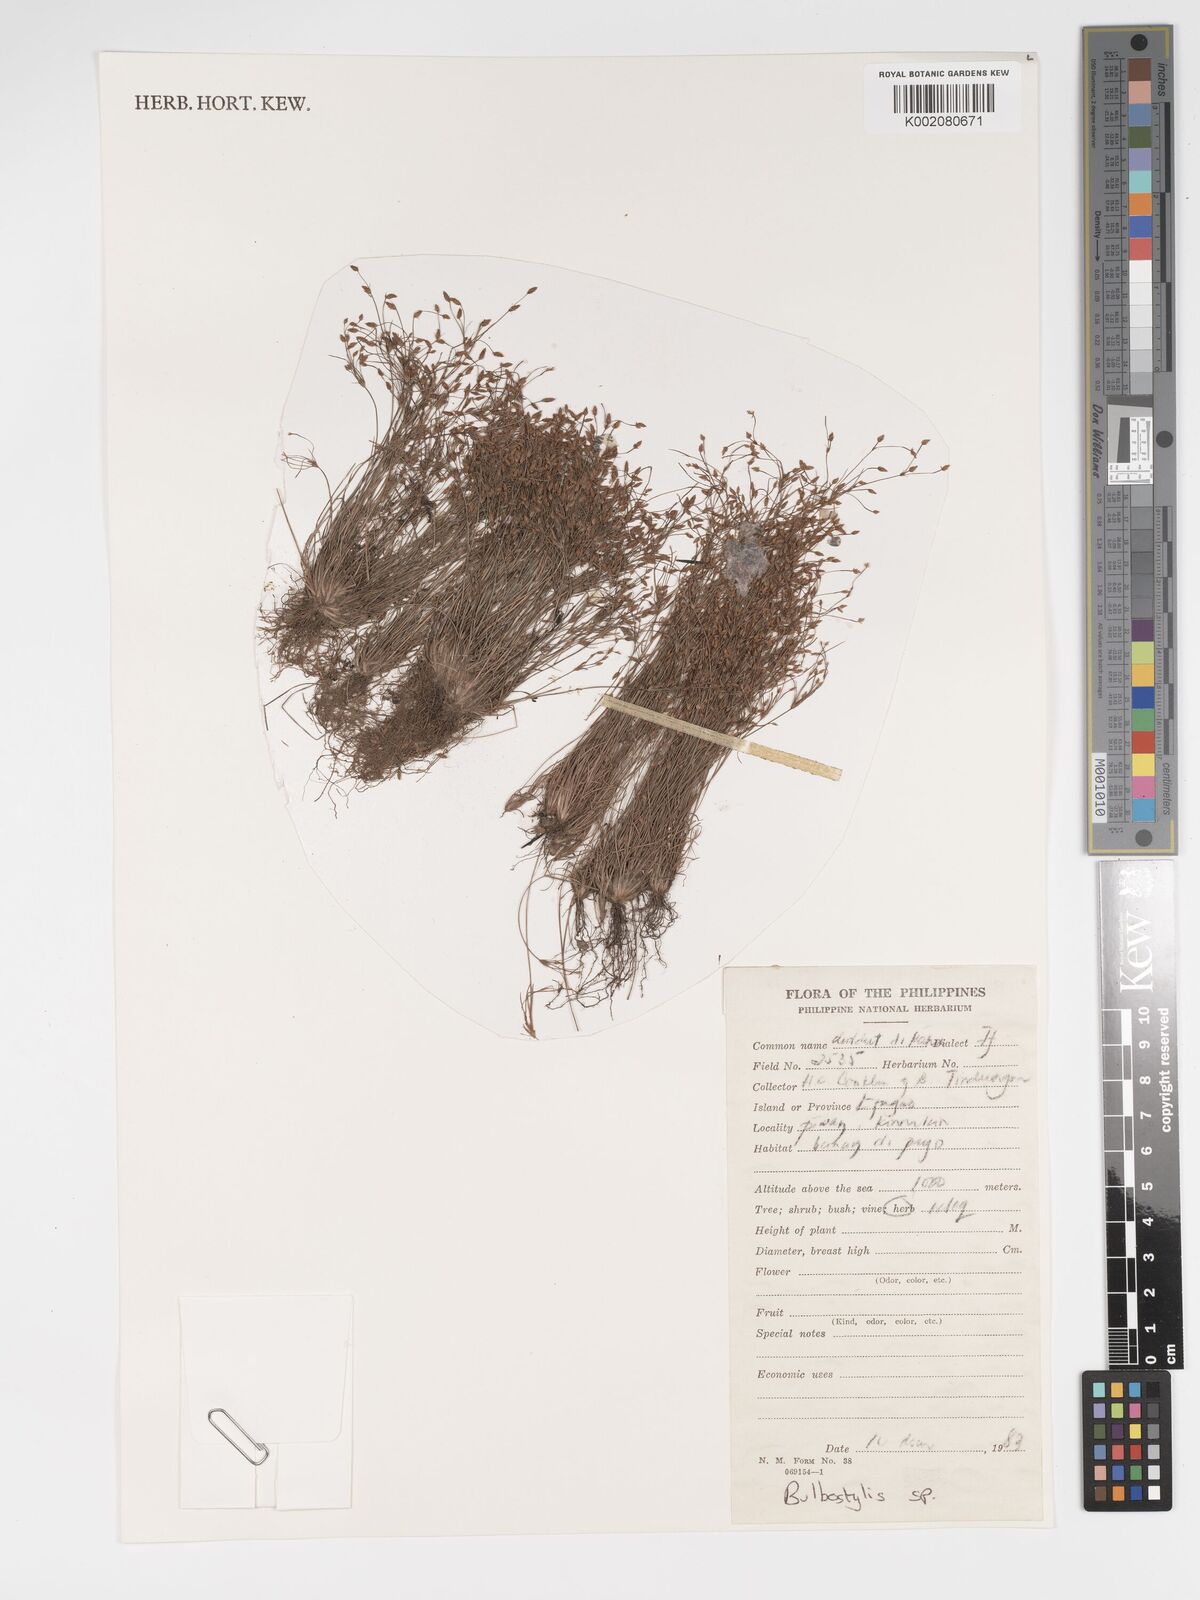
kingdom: Plantae
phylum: Tracheophyta
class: Magnoliopsida
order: Asterales
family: Asteraceae
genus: Bulbostylis
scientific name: Bulbostylis
